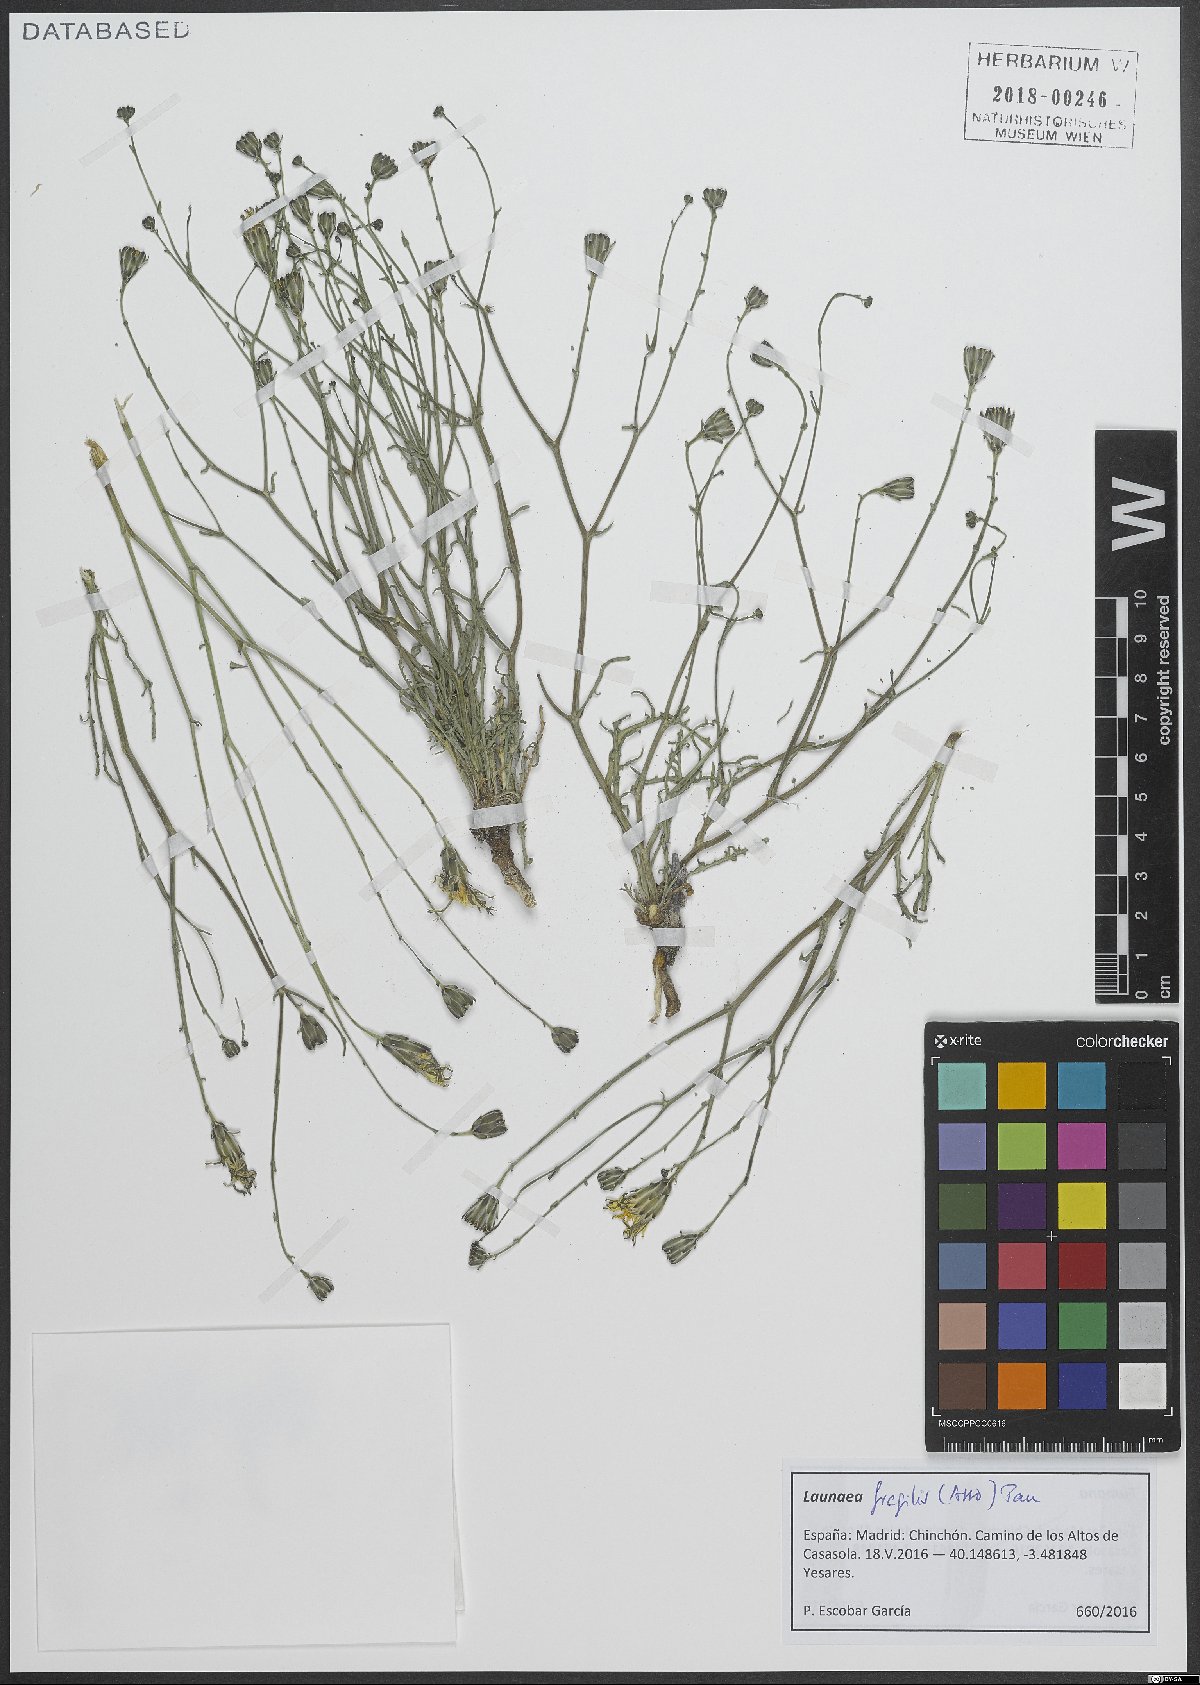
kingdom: Plantae
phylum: Tracheophyta
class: Magnoliopsida
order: Asterales
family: Asteraceae
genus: Launaea
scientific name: Launaea fragilis
